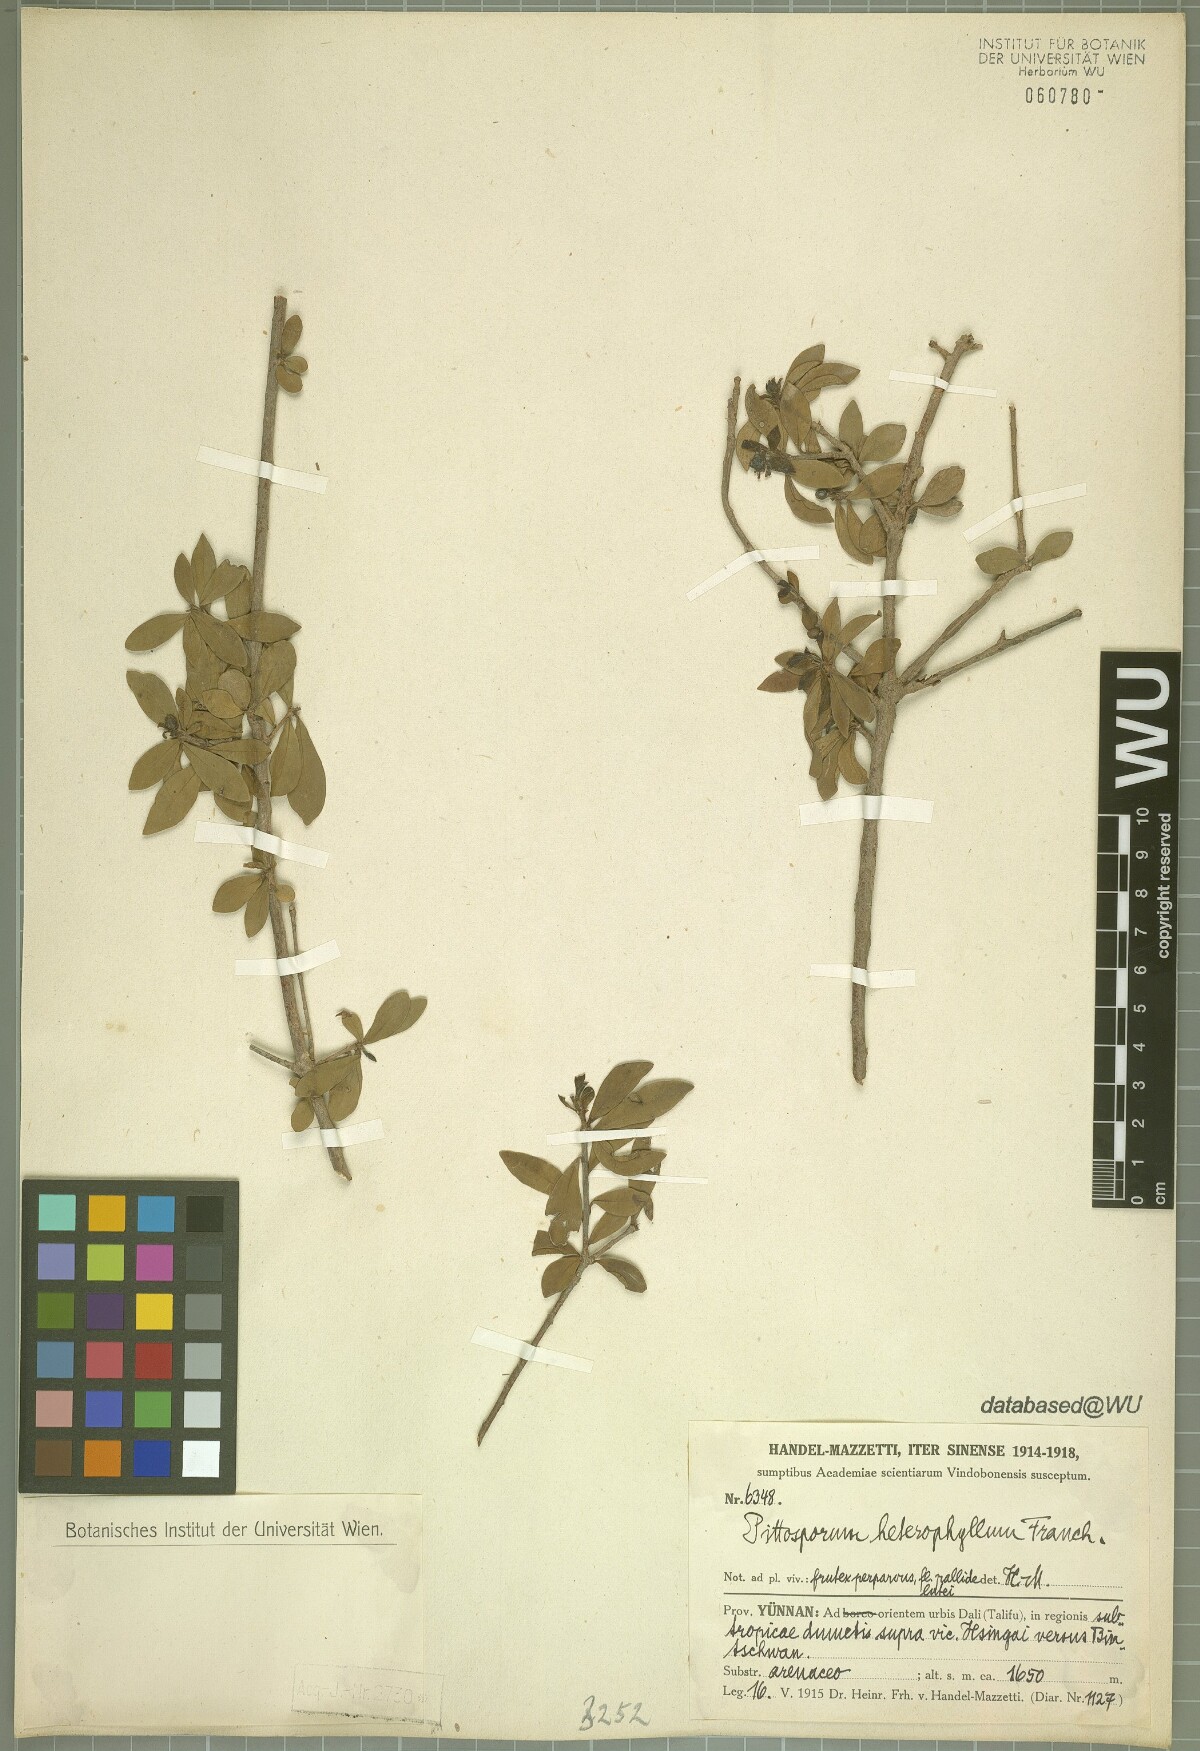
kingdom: Plantae
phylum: Tracheophyta
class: Magnoliopsida
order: Apiales
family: Pittosporaceae
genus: Pittosporum
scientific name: Pittosporum heterophyllum
